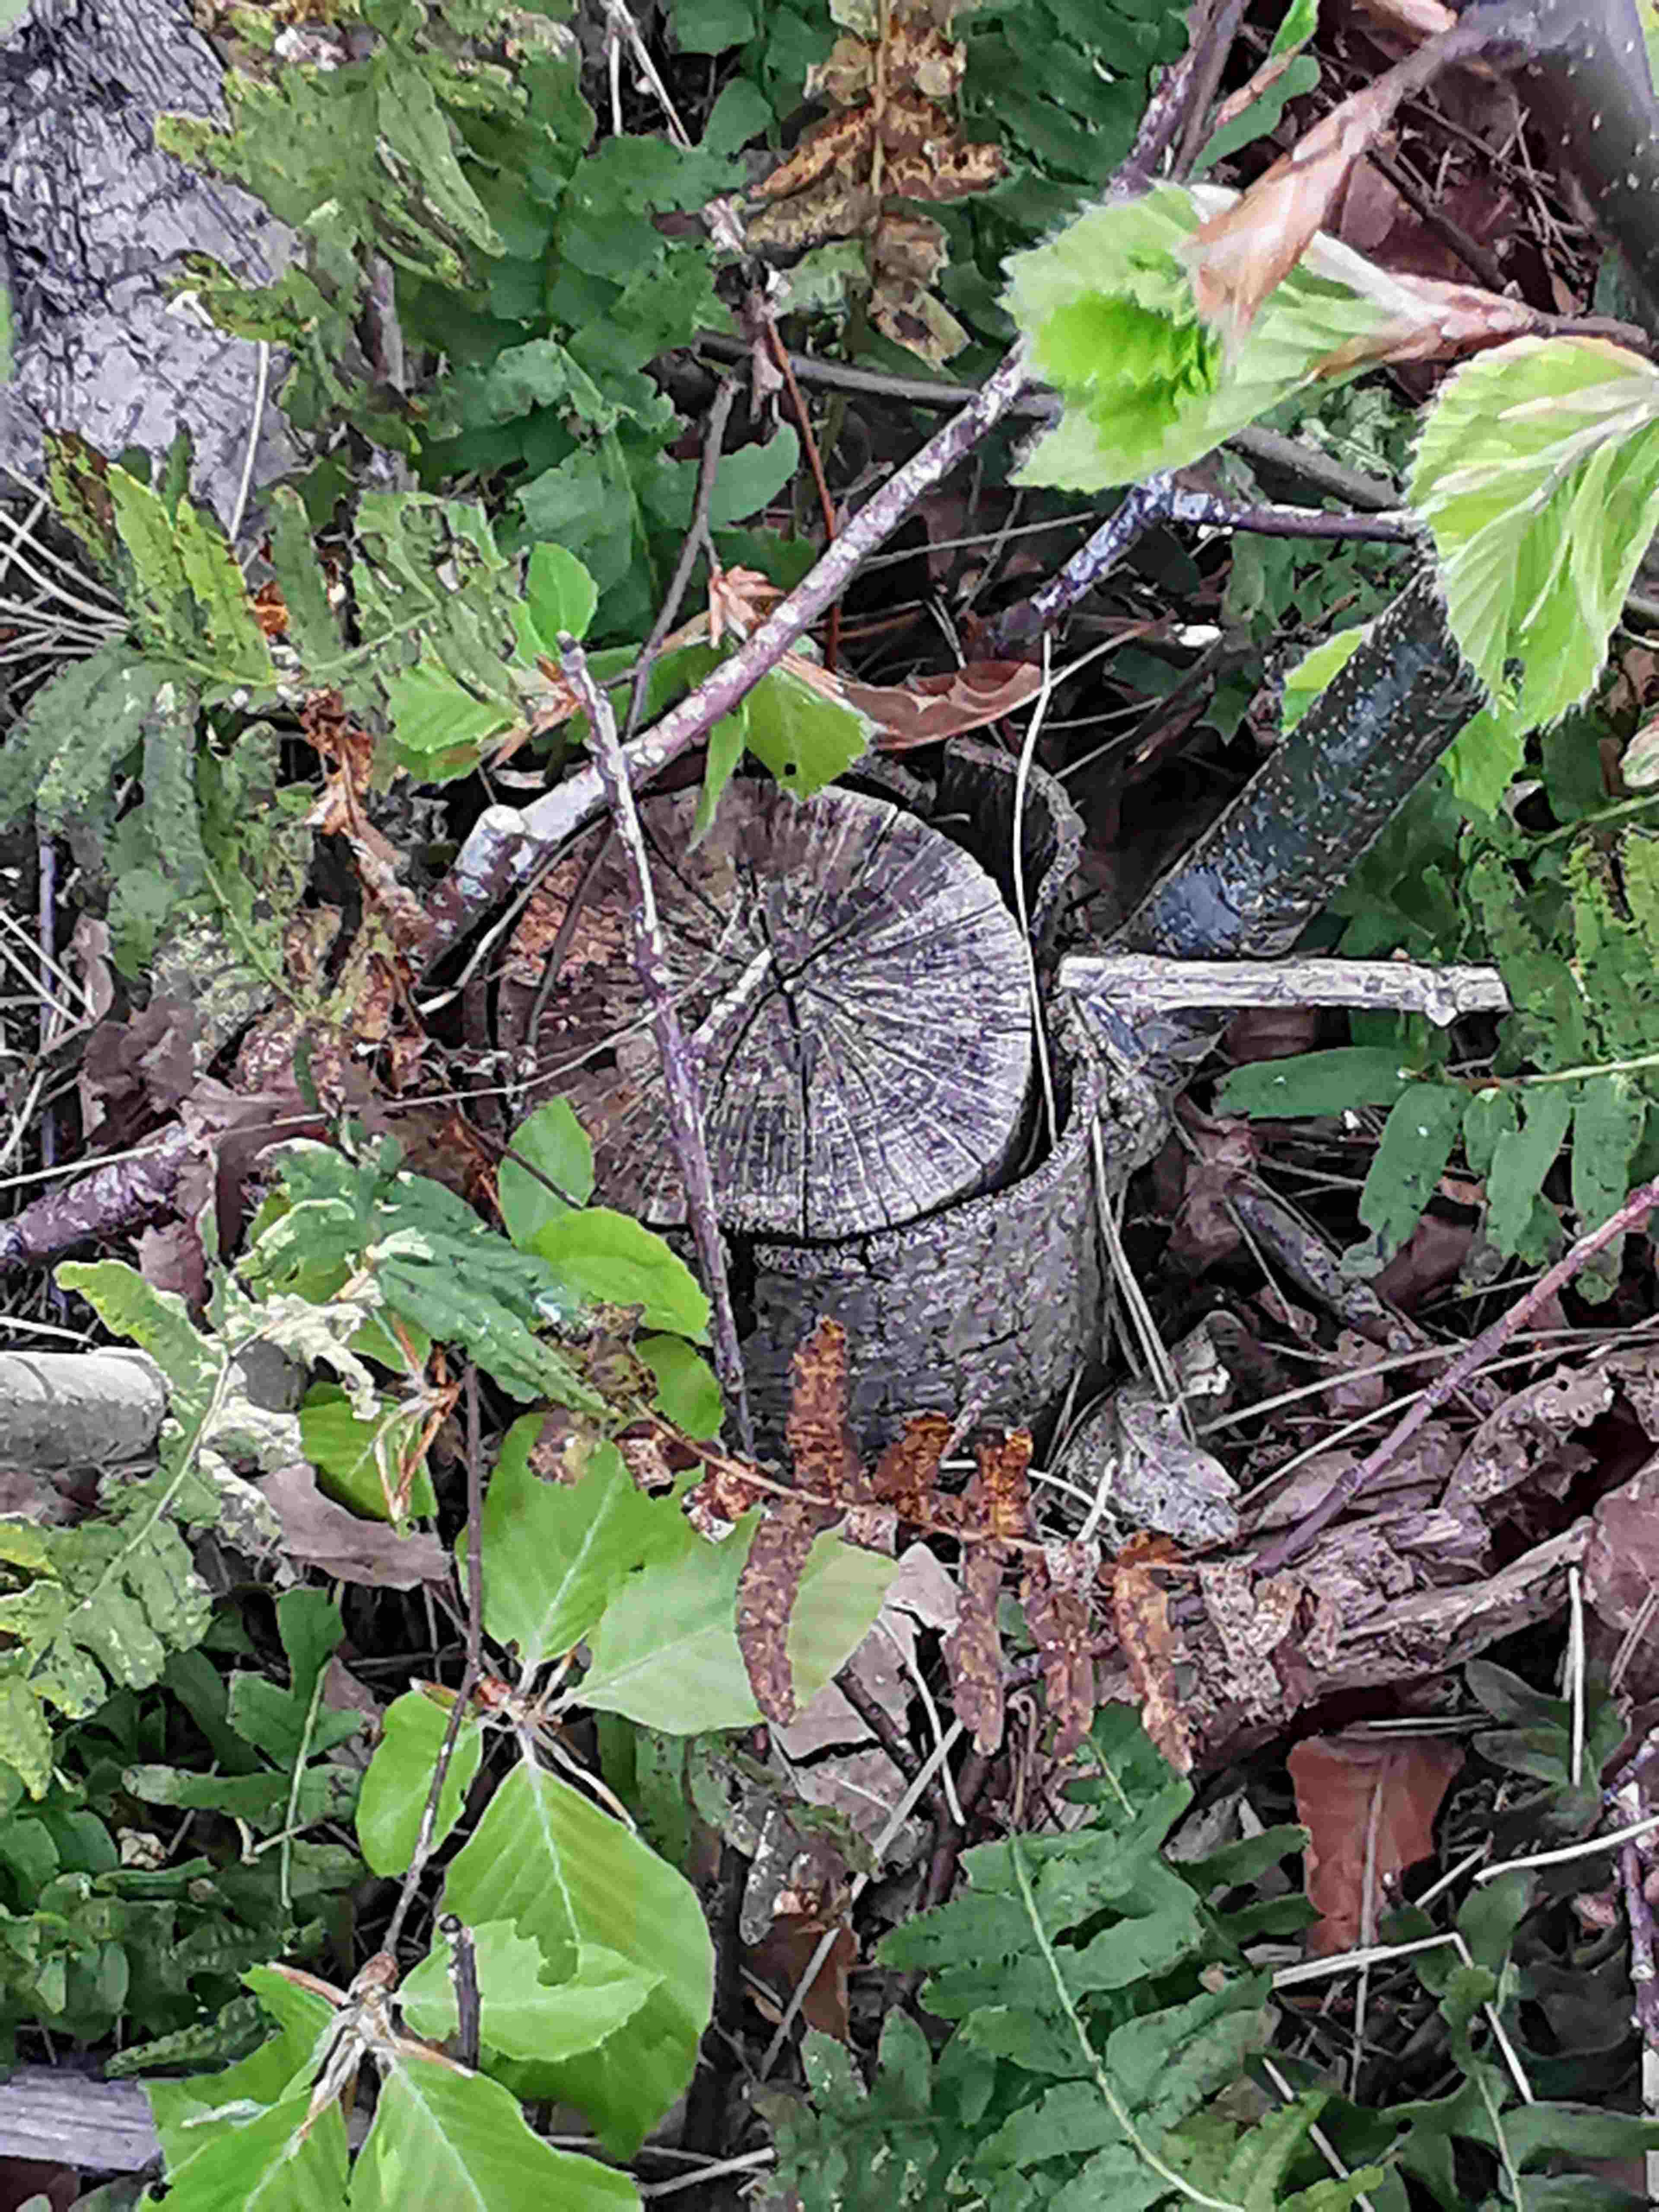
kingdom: Fungi
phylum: Ascomycota
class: Leotiomycetes
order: Helotiales
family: Helotiaceae
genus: Bispora
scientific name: Bispora pallescens
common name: måtte-snitskive
